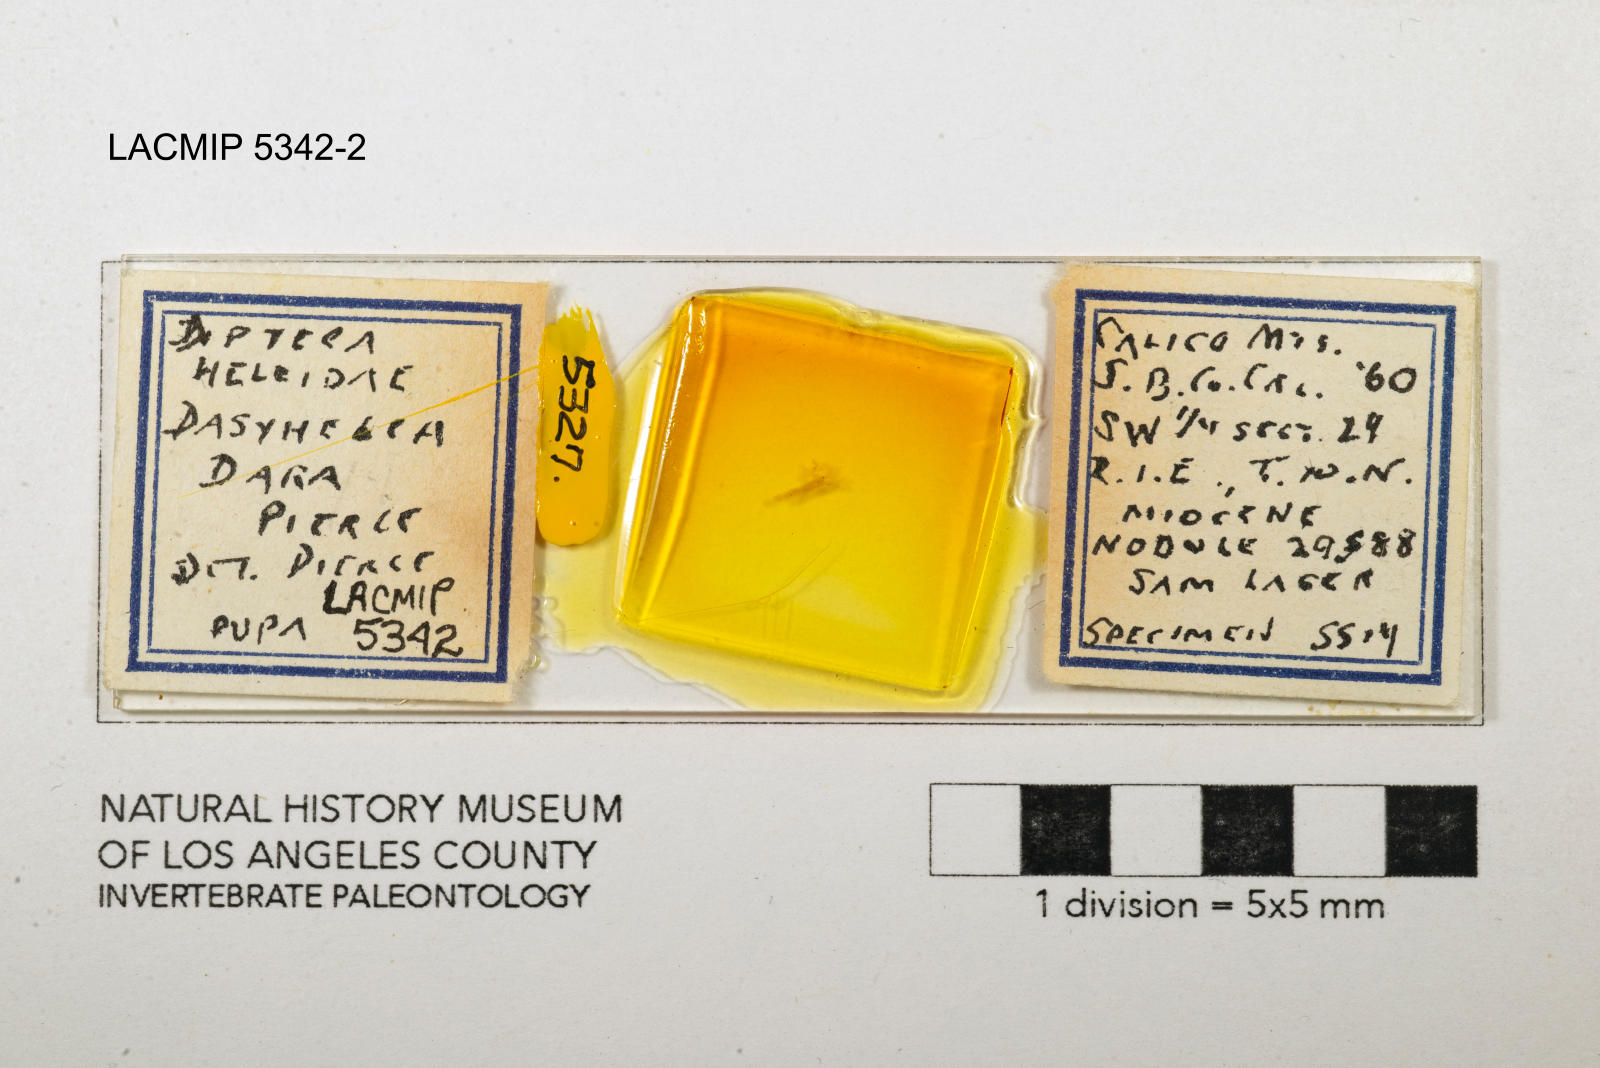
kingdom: Animalia
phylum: Arthropoda
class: Insecta
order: Diptera
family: Ceratopogonidae
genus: Dasyhelea
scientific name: Dasyhelea dara
